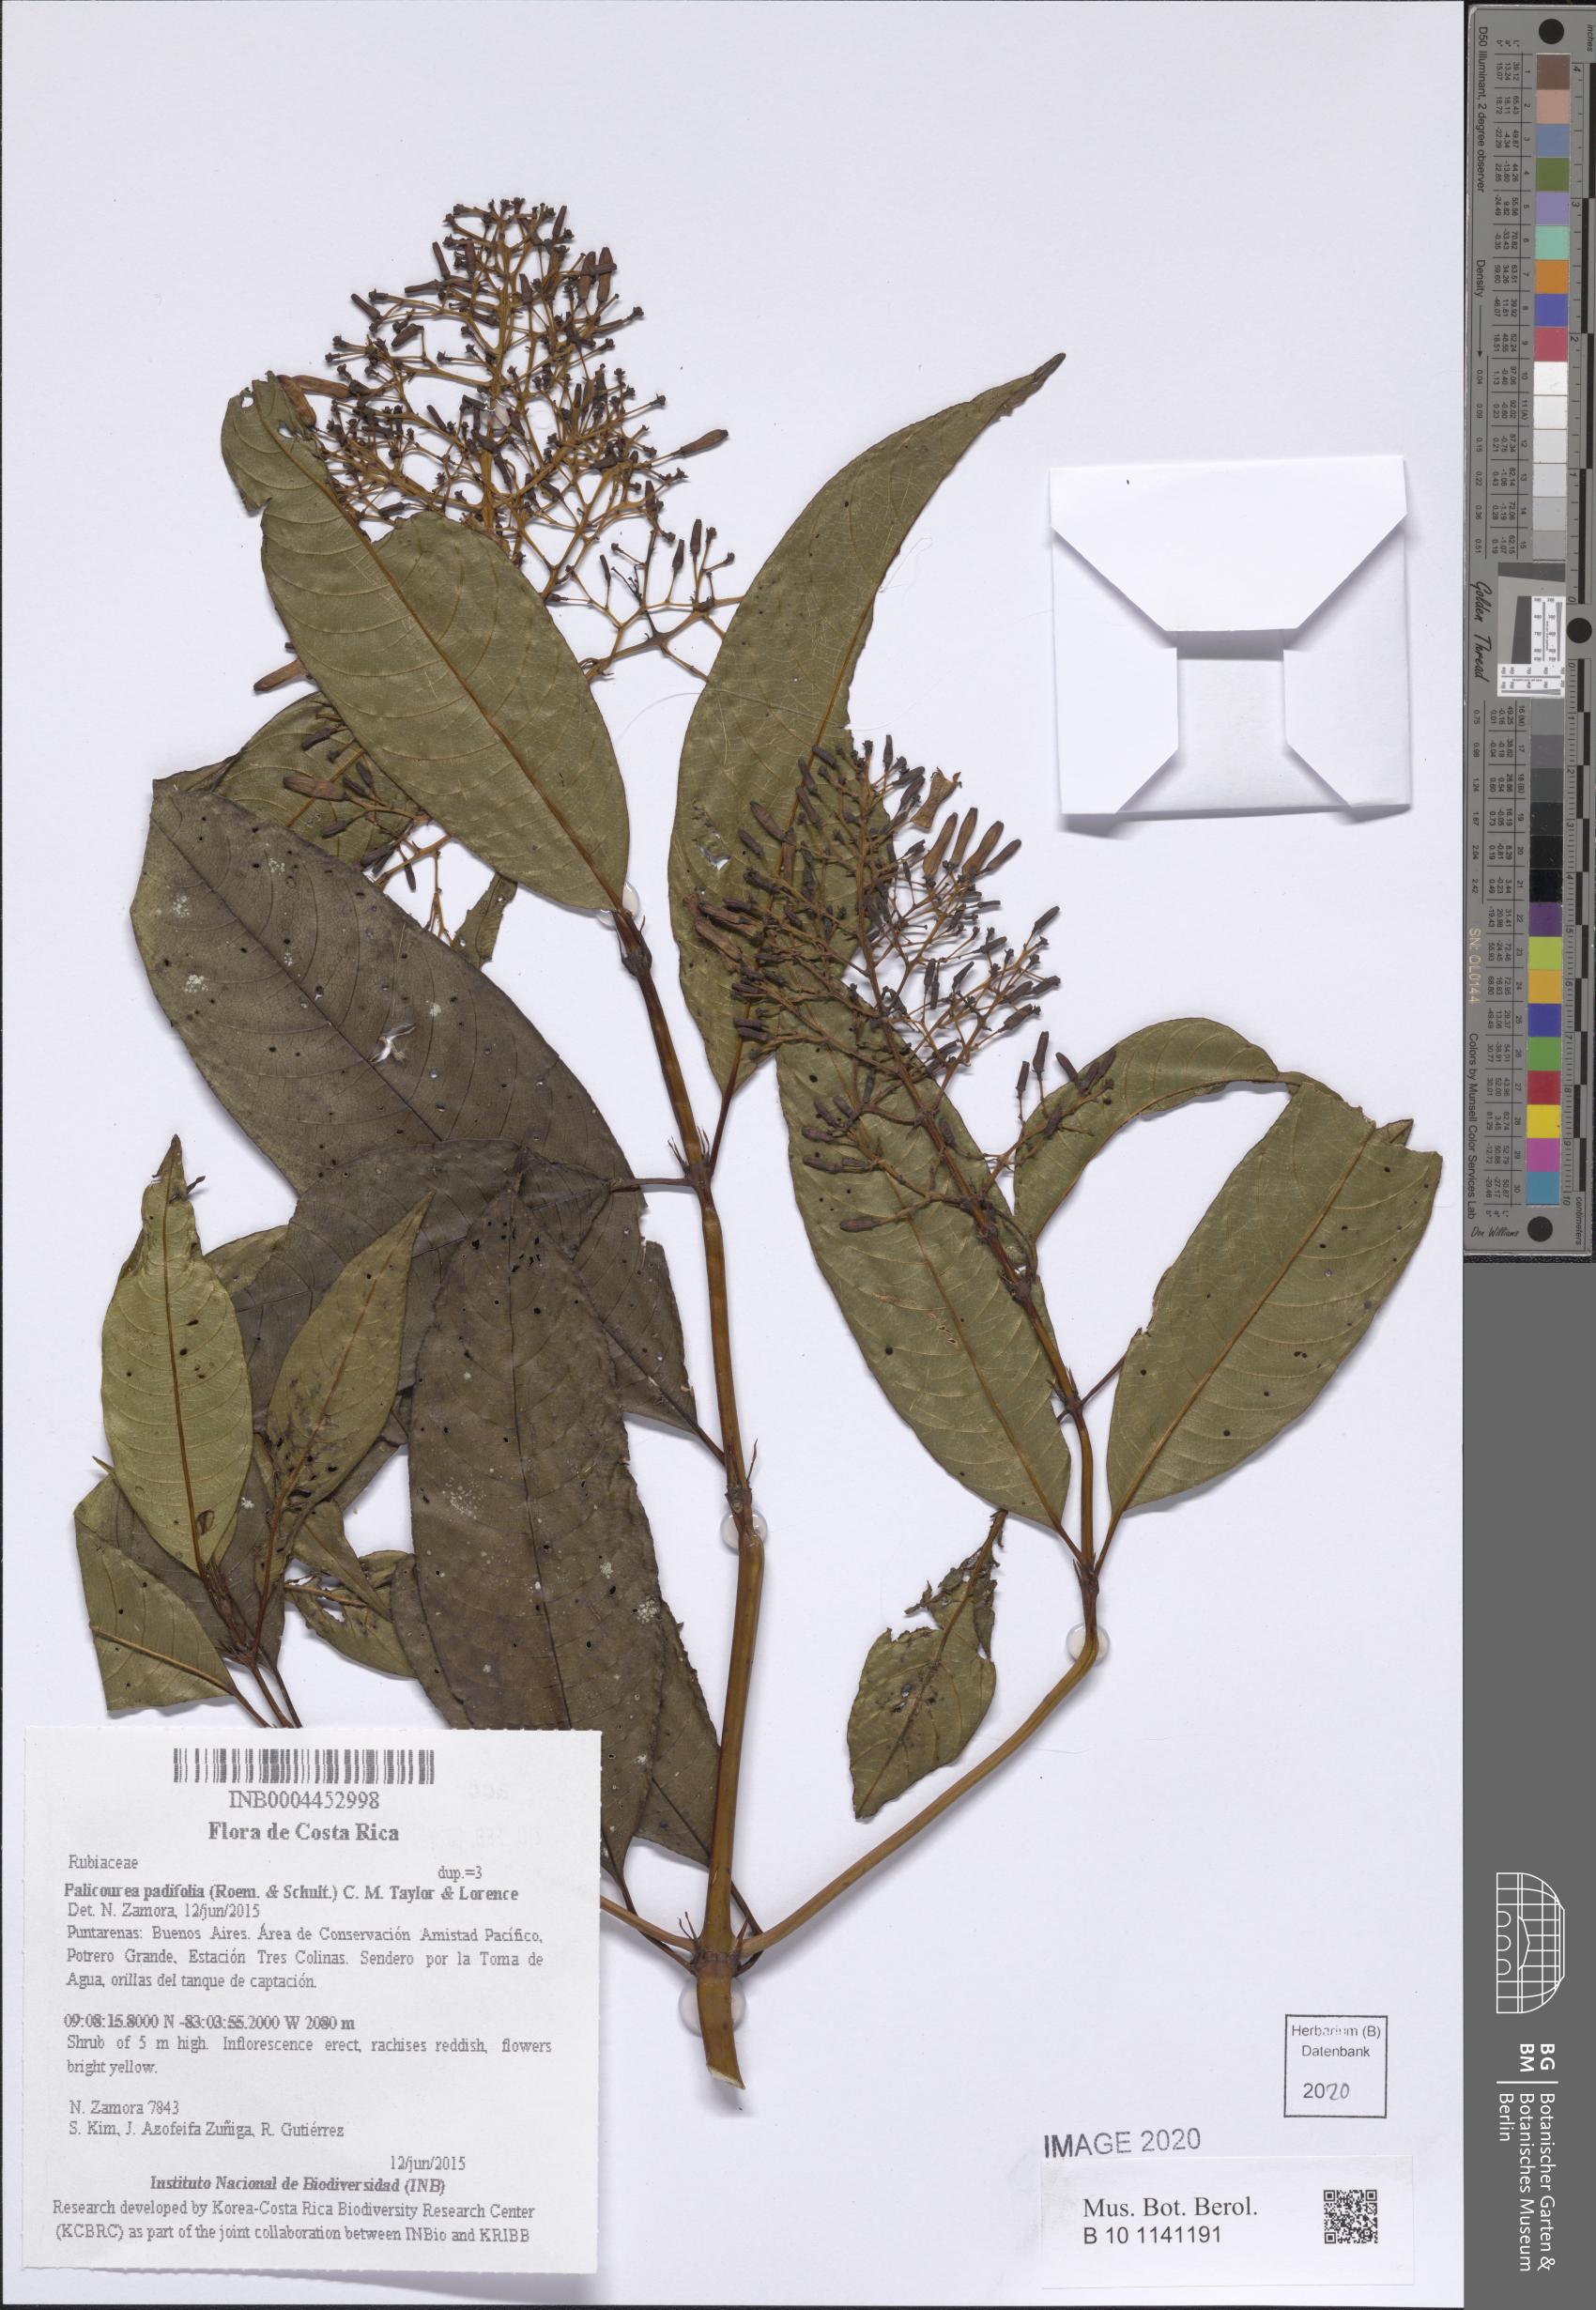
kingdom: Plantae
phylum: Tracheophyta
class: Magnoliopsida
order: Gentianales
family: Rubiaceae
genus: Palicourea
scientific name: Palicourea padifolia
